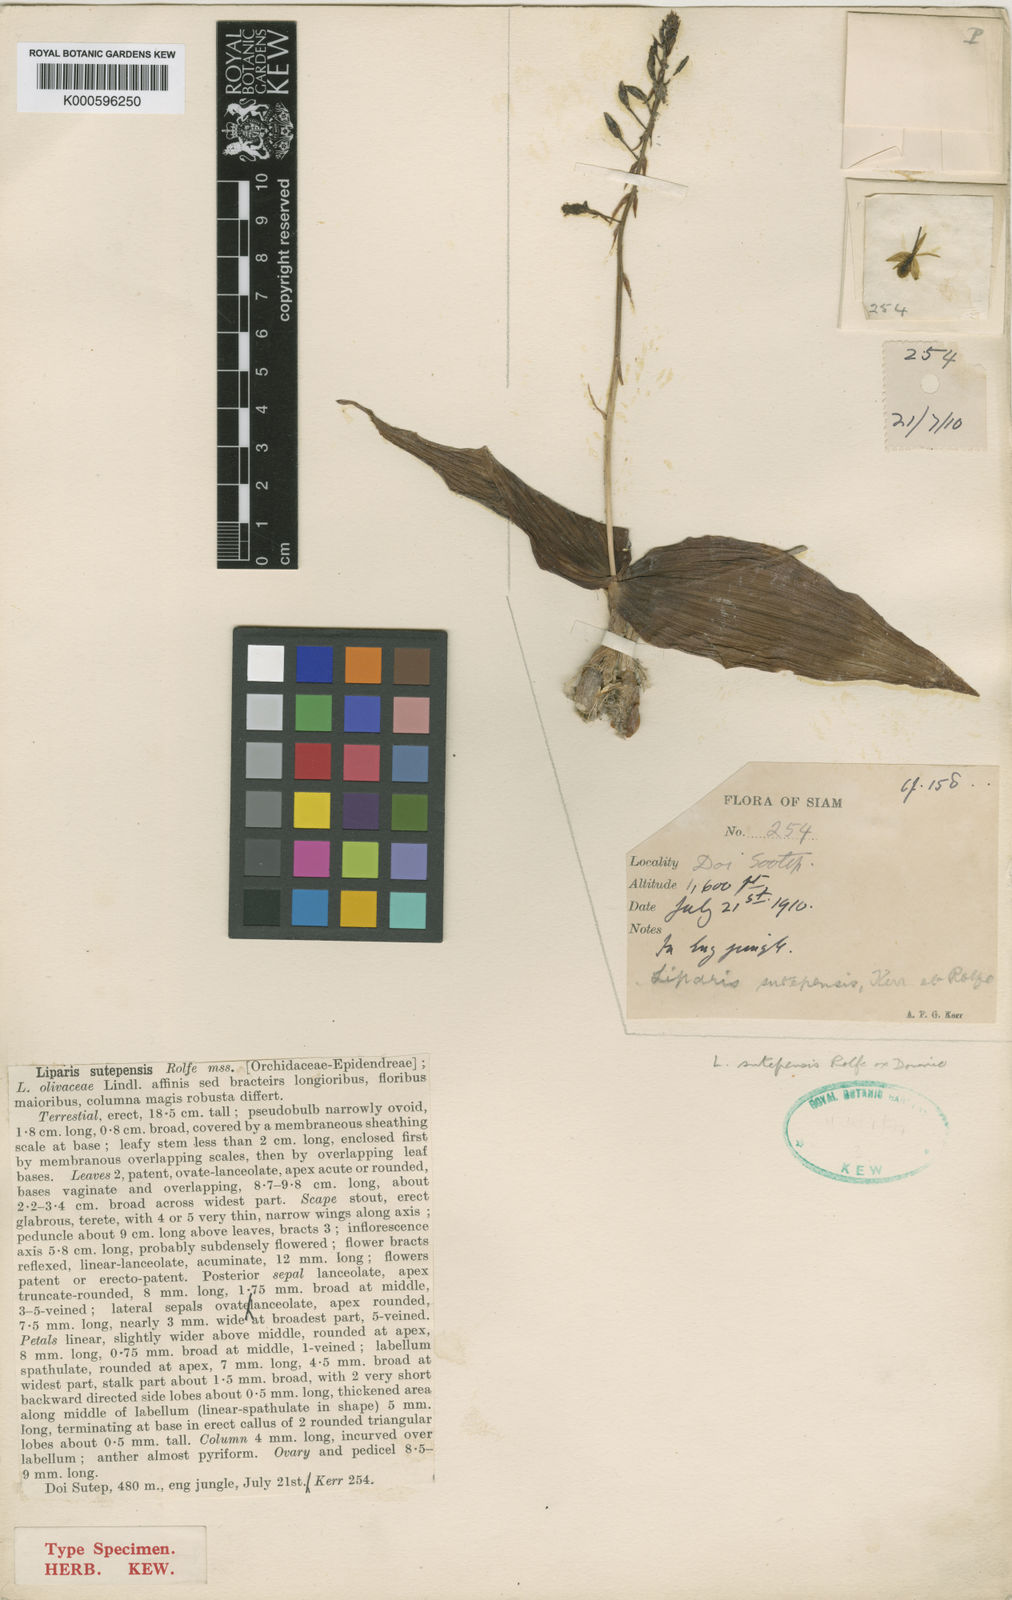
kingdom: Plantae
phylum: Tracheophyta
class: Liliopsida
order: Asparagales
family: Orchidaceae
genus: Liparis
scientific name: Liparis tschangii
